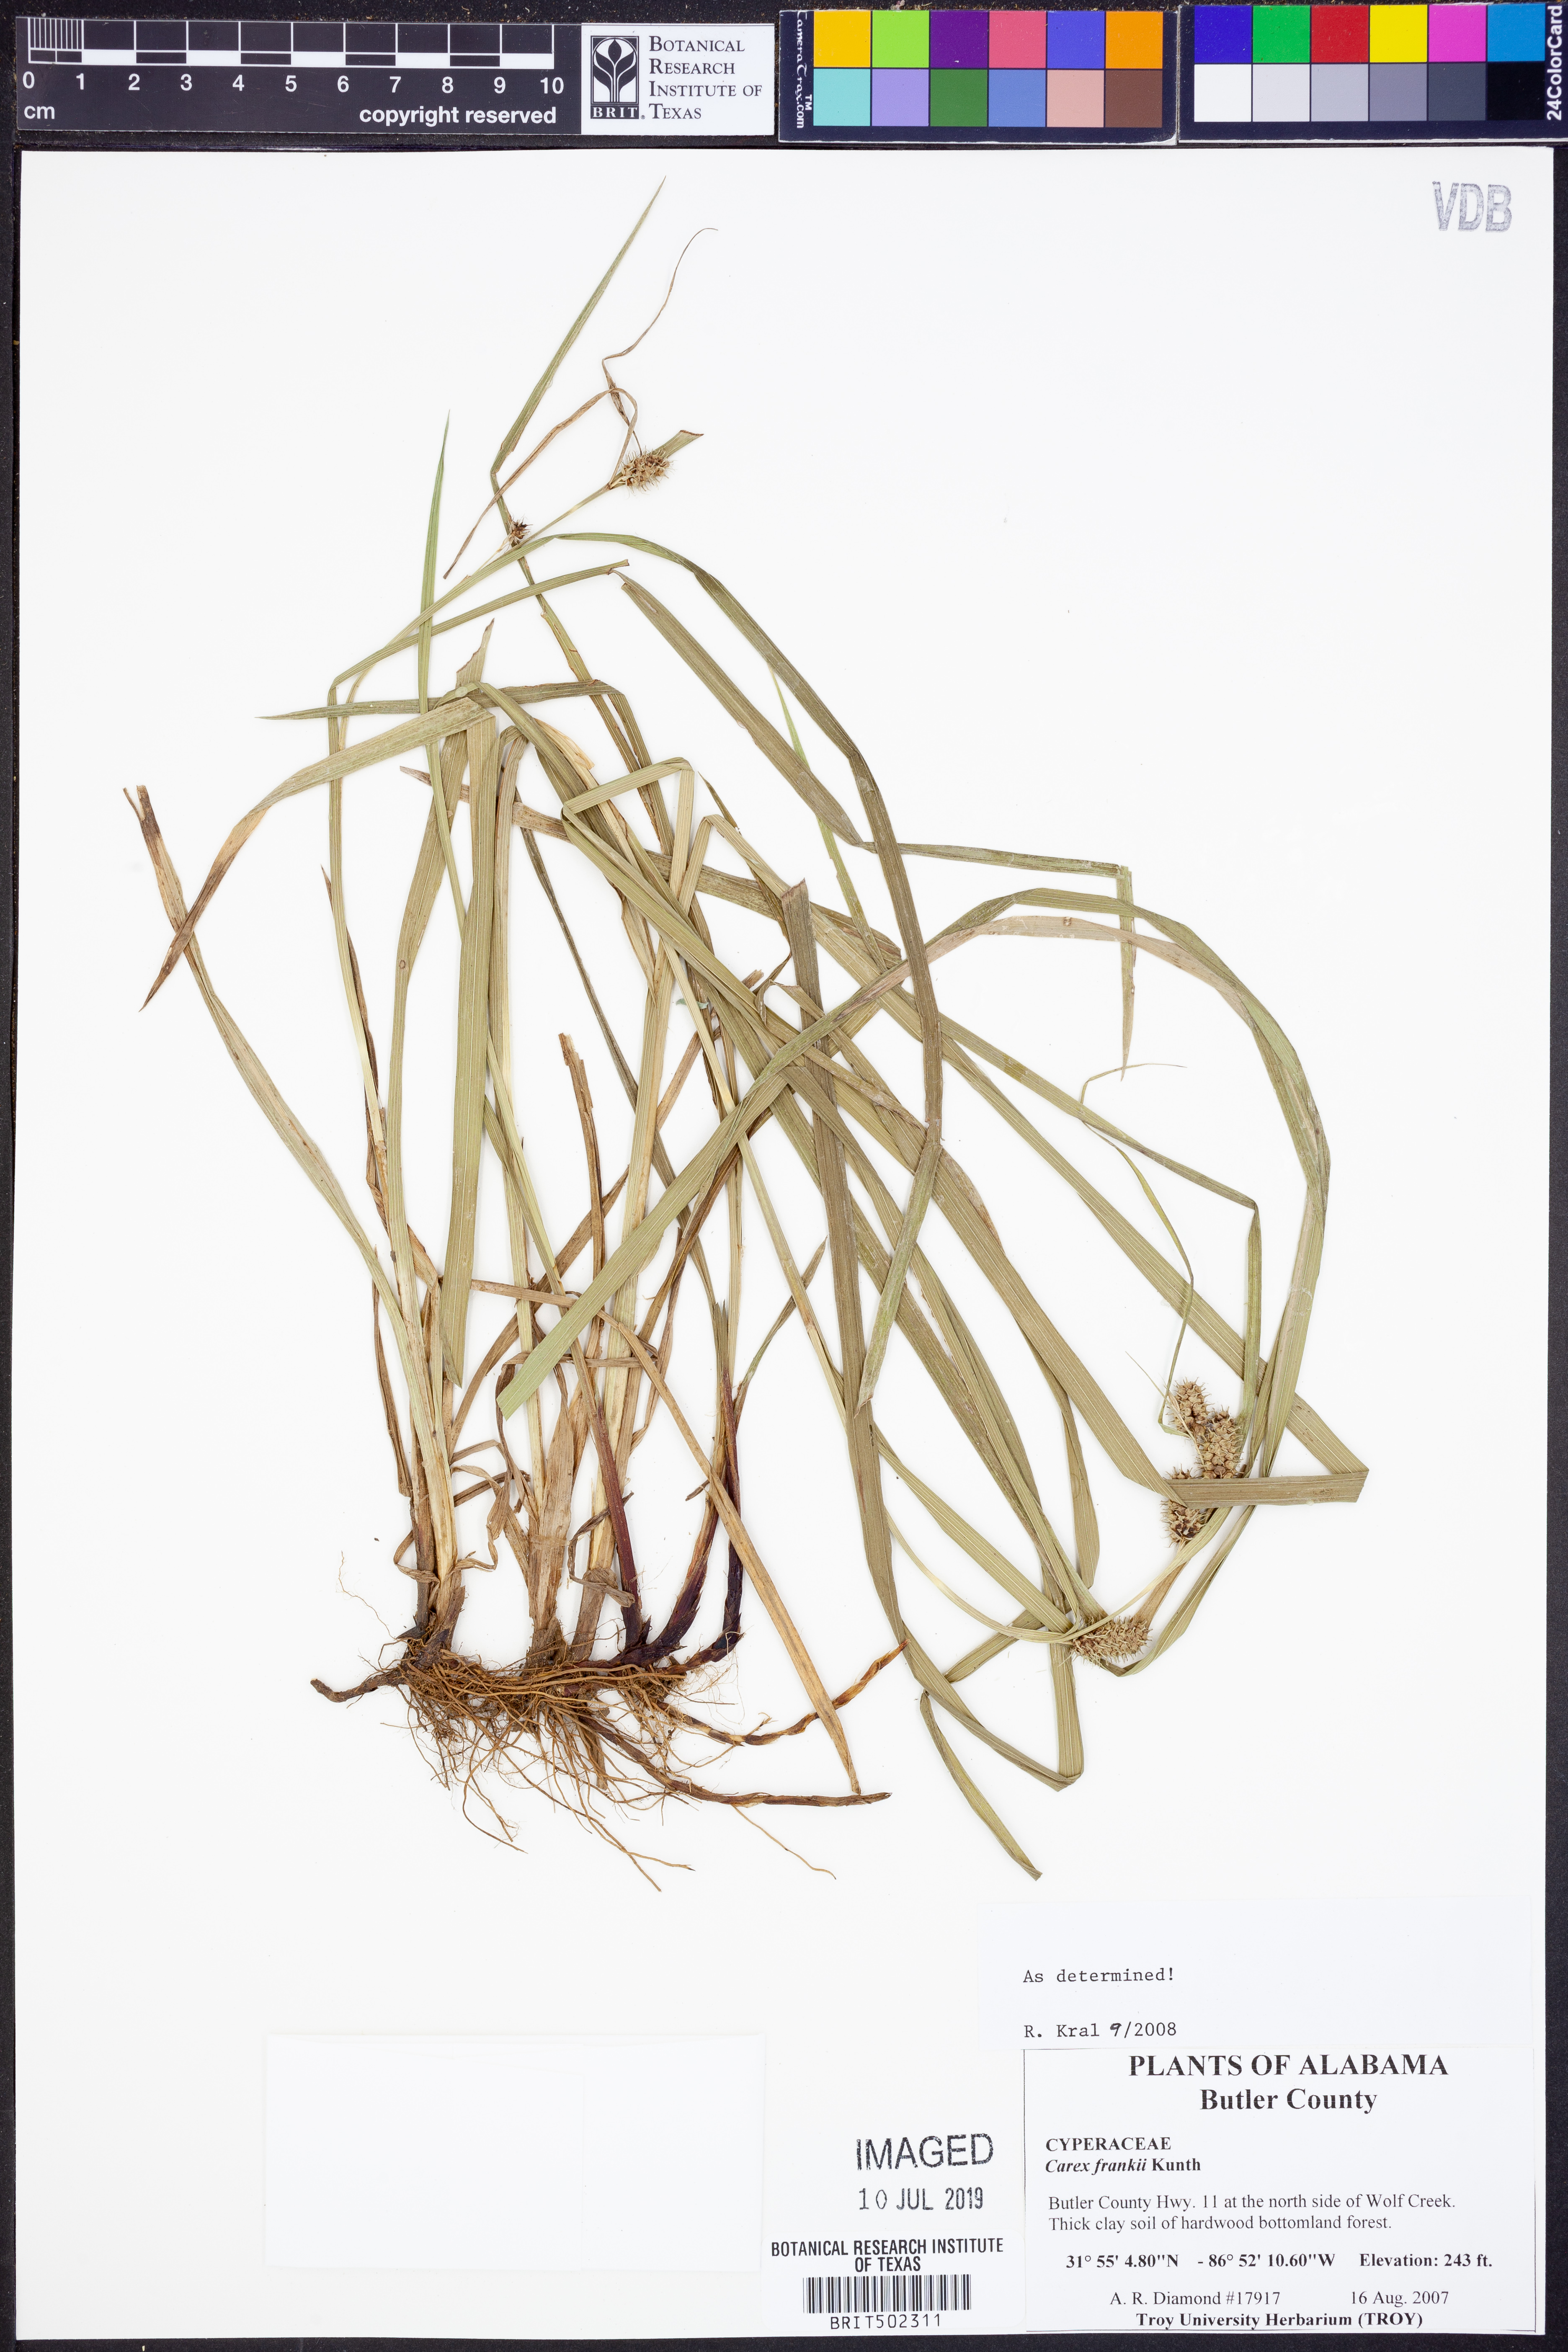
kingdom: Plantae
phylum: Tracheophyta
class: Liliopsida
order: Poales
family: Cyperaceae
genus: Carex
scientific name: Carex frankii
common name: Frank's sedge
